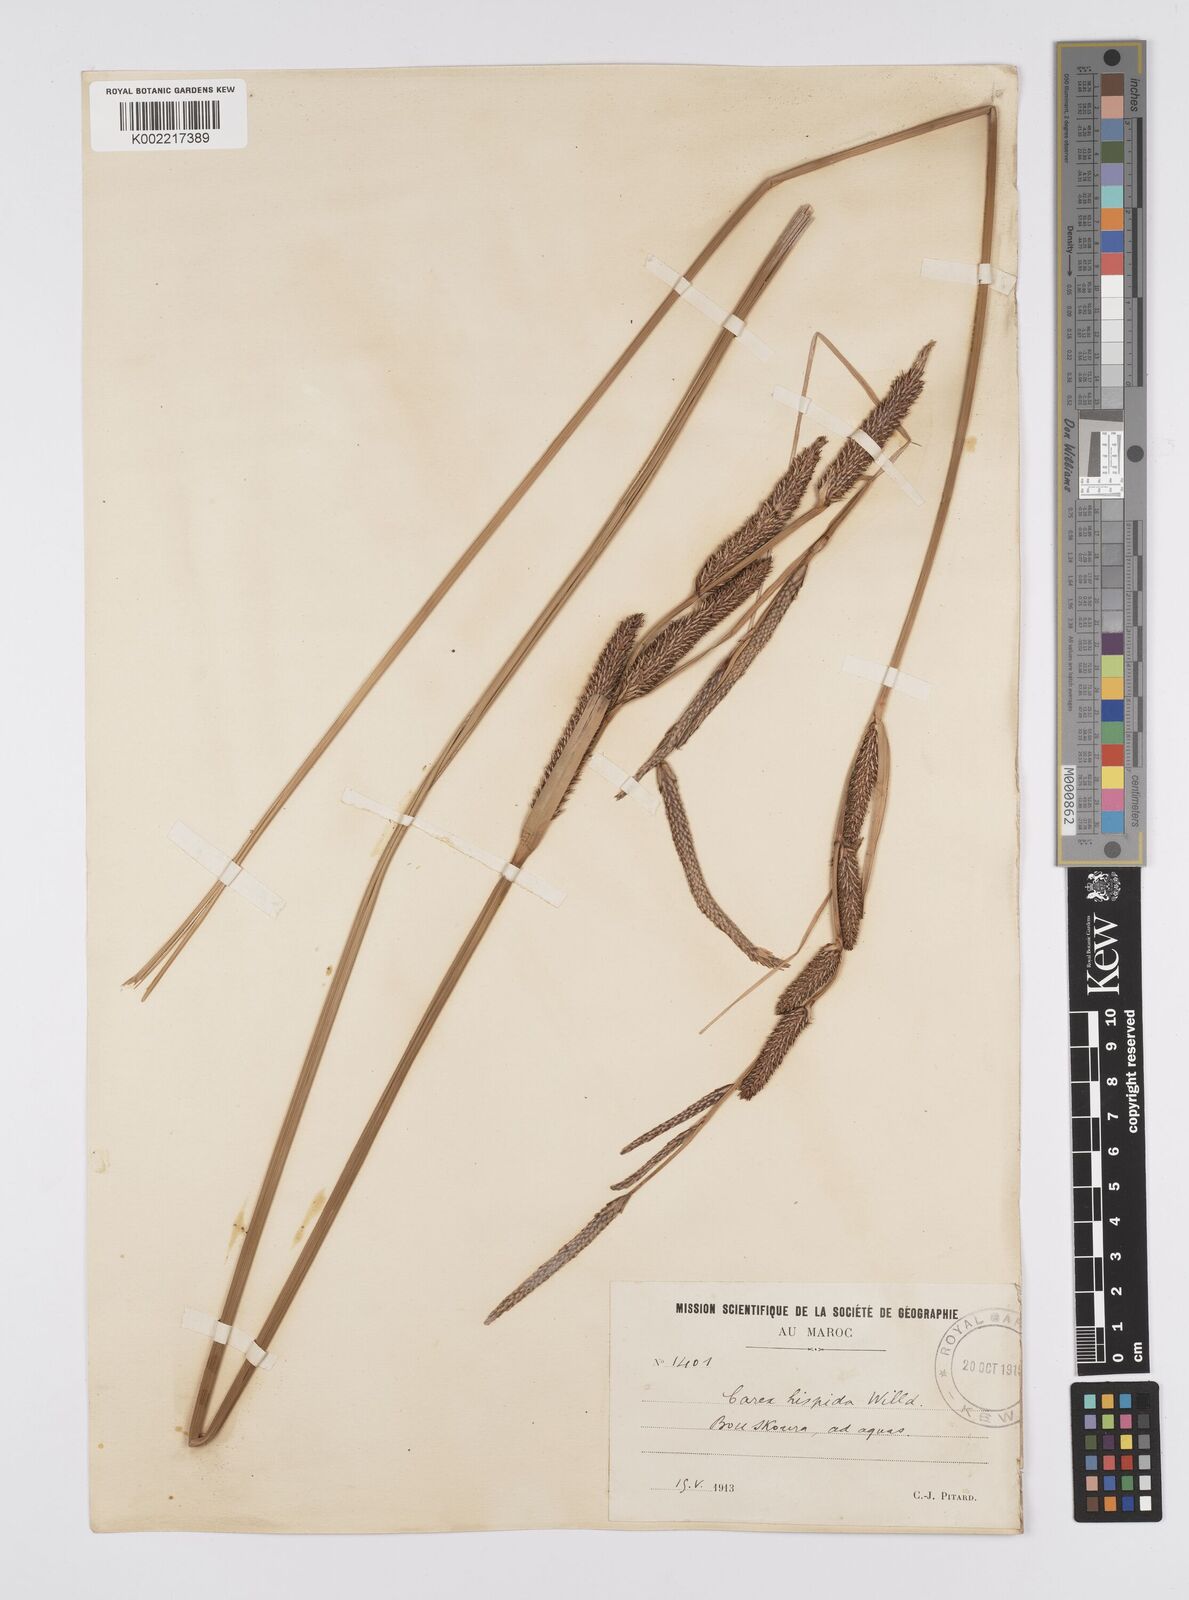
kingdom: Plantae
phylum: Tracheophyta
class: Liliopsida
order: Poales
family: Cyperaceae
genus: Carex
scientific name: Carex hispida
